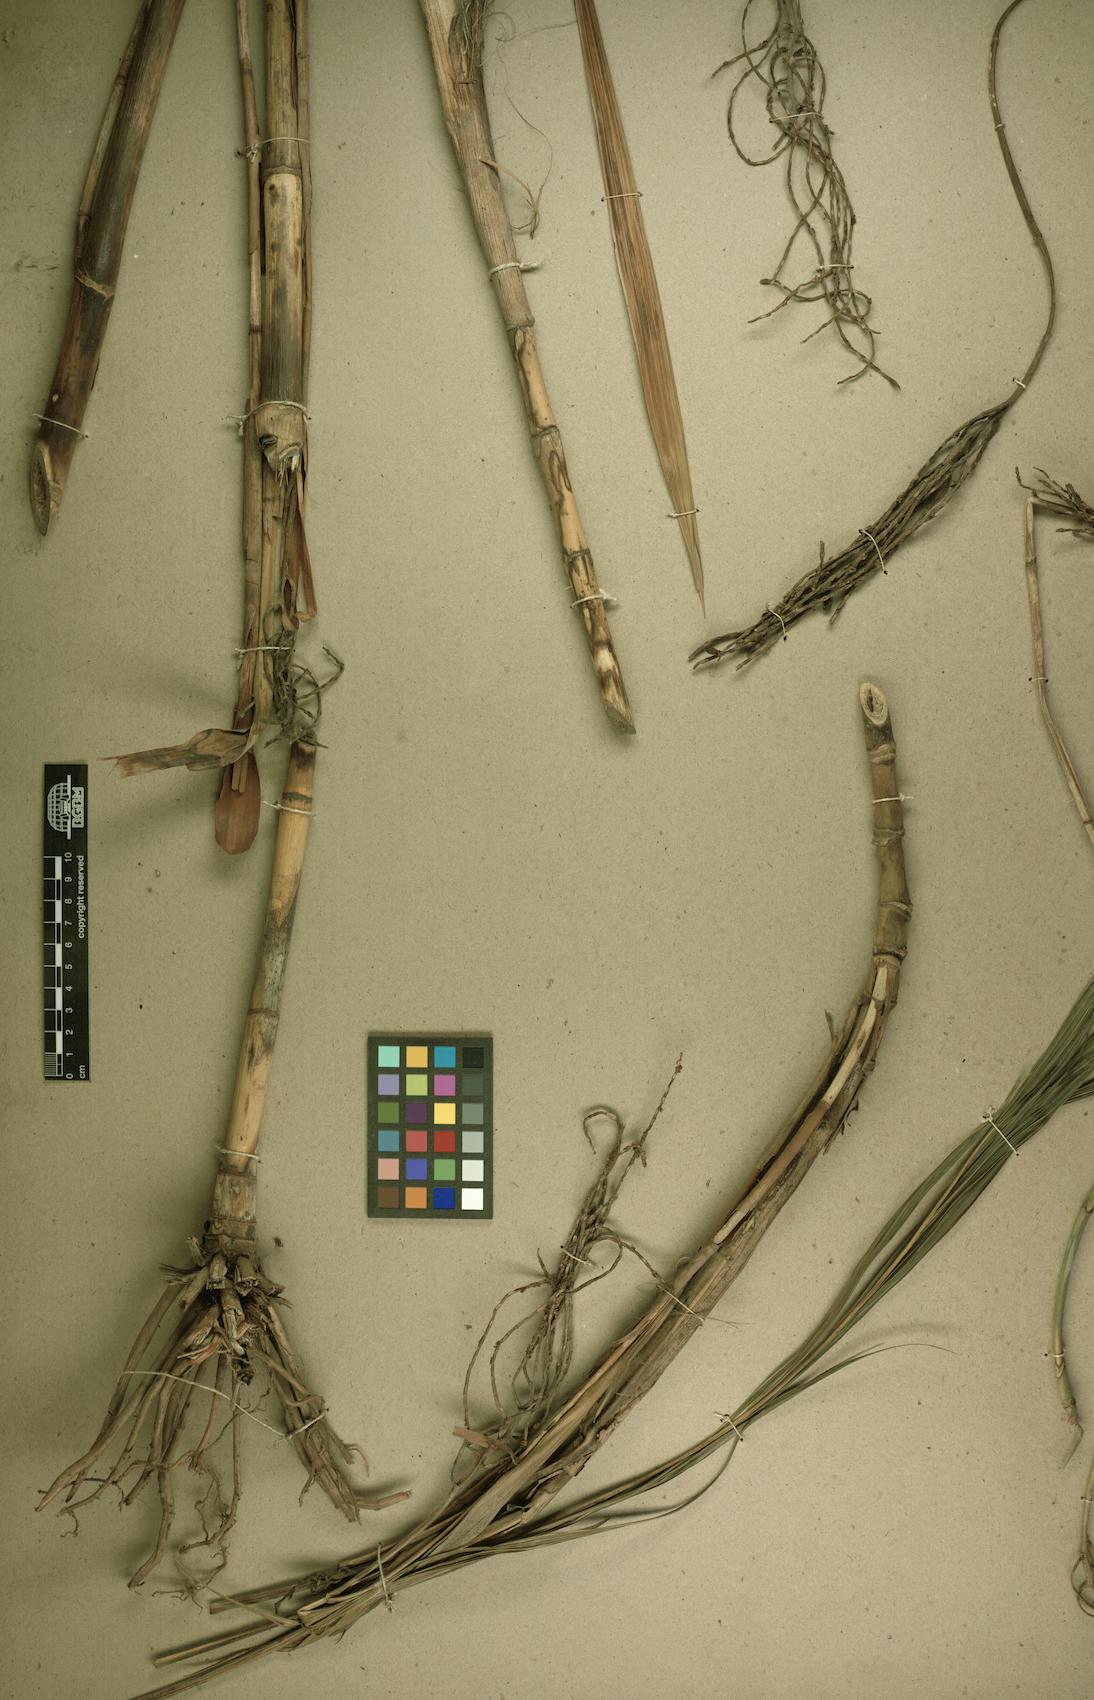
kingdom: Plantae
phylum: Tracheophyta
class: Liliopsida
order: Arecales
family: Arecaceae
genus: Chamaedorea
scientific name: Chamaedorea pinnatifrons
